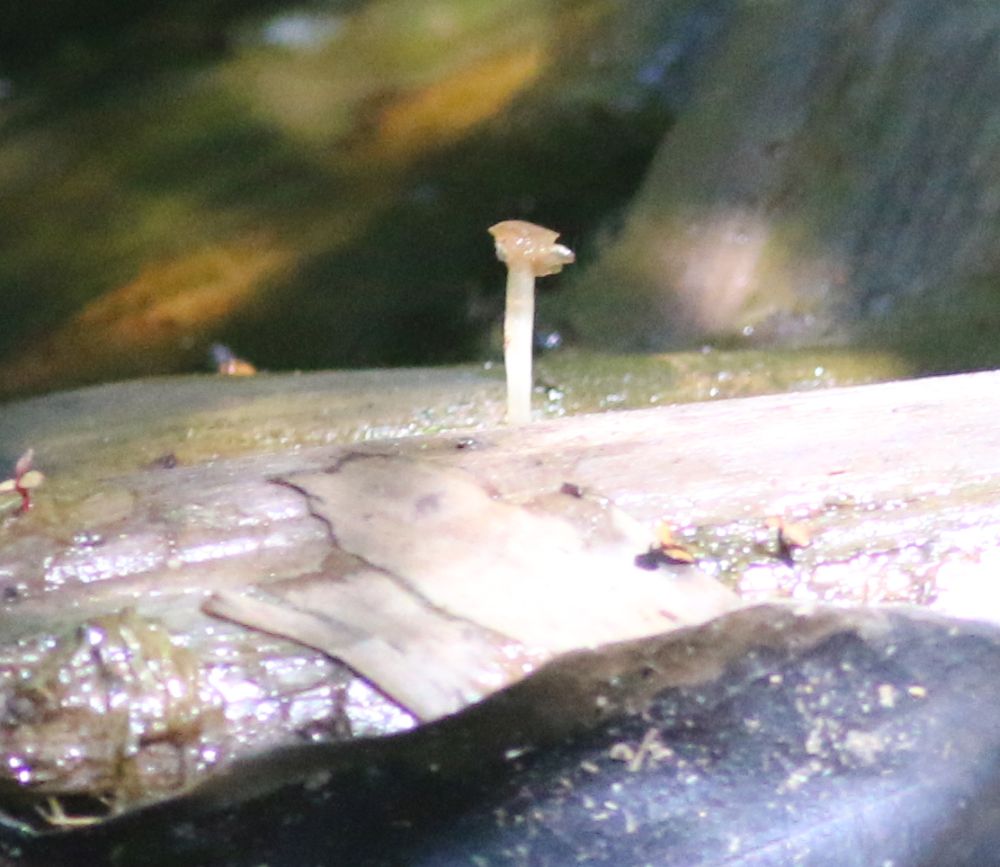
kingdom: Fungi
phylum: Basidiomycota
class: Agaricomycetes
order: Agaricales
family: Psathyrellaceae
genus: Candolleomyces
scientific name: Candolleomyces typhae
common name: dunhammer-mørkhat
